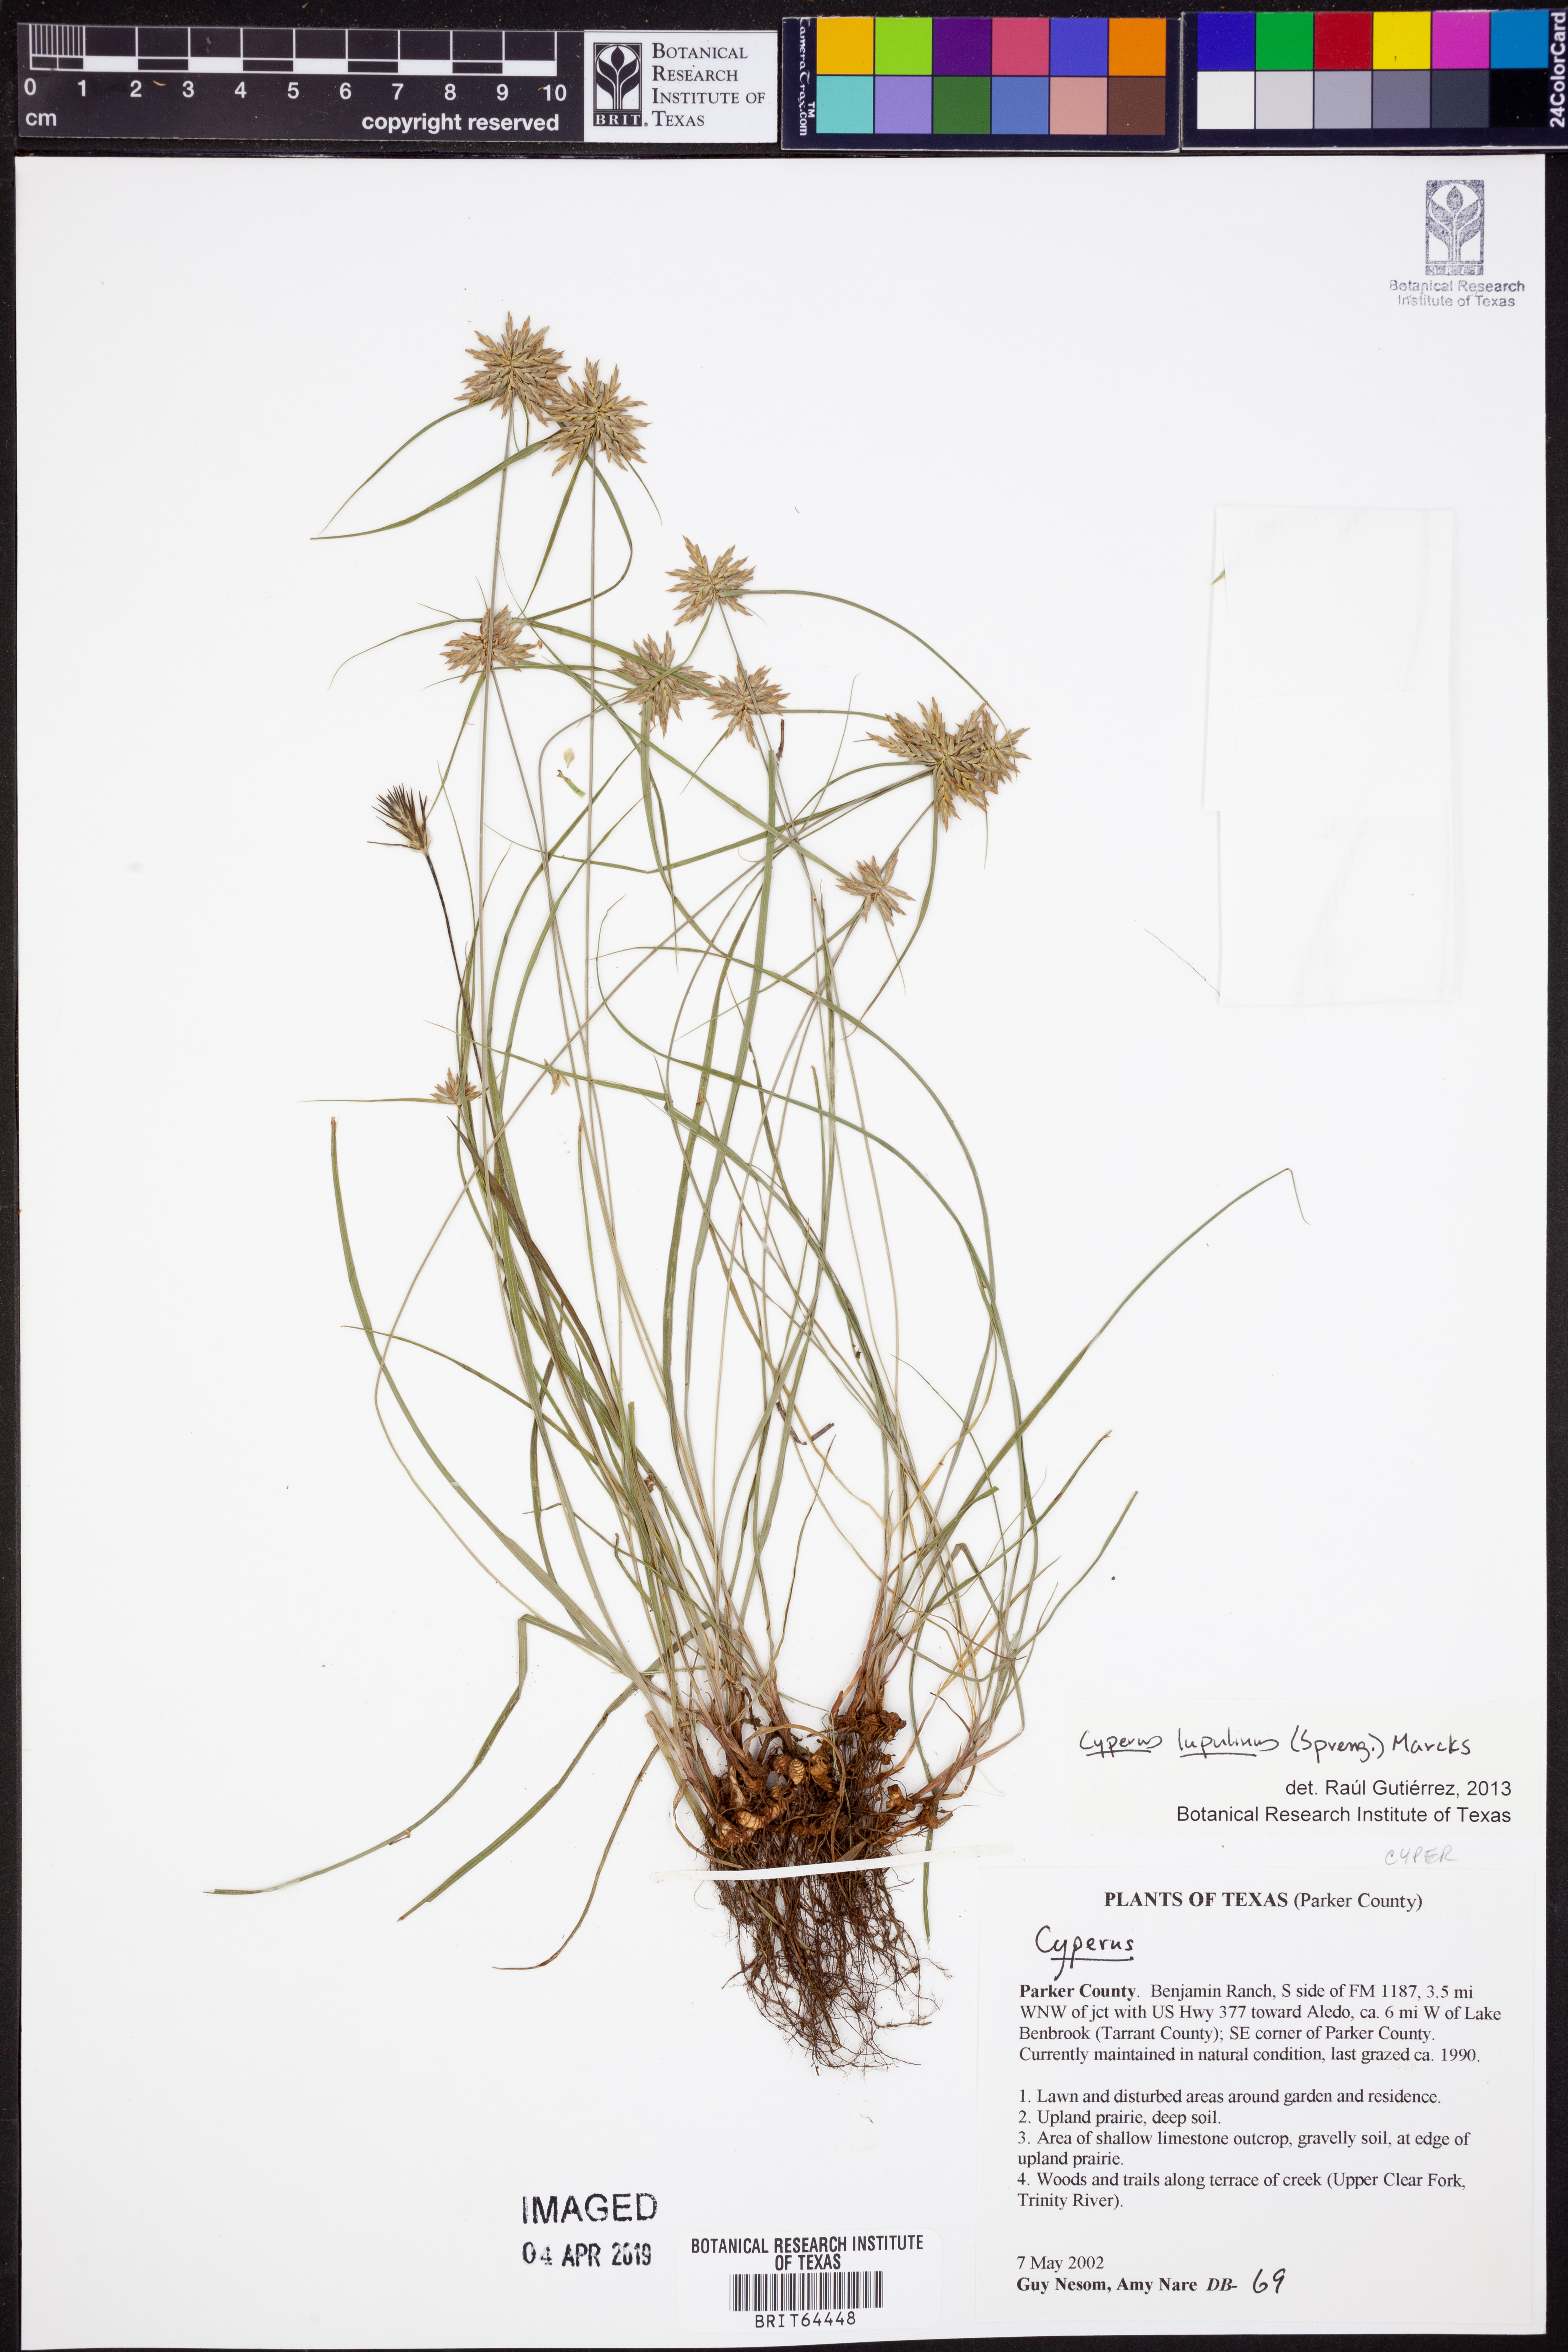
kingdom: Plantae
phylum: Tracheophyta
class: Liliopsida
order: Poales
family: Cyperaceae
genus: Cyperus
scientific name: Cyperus lupulinus
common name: Great plains flatsedge
